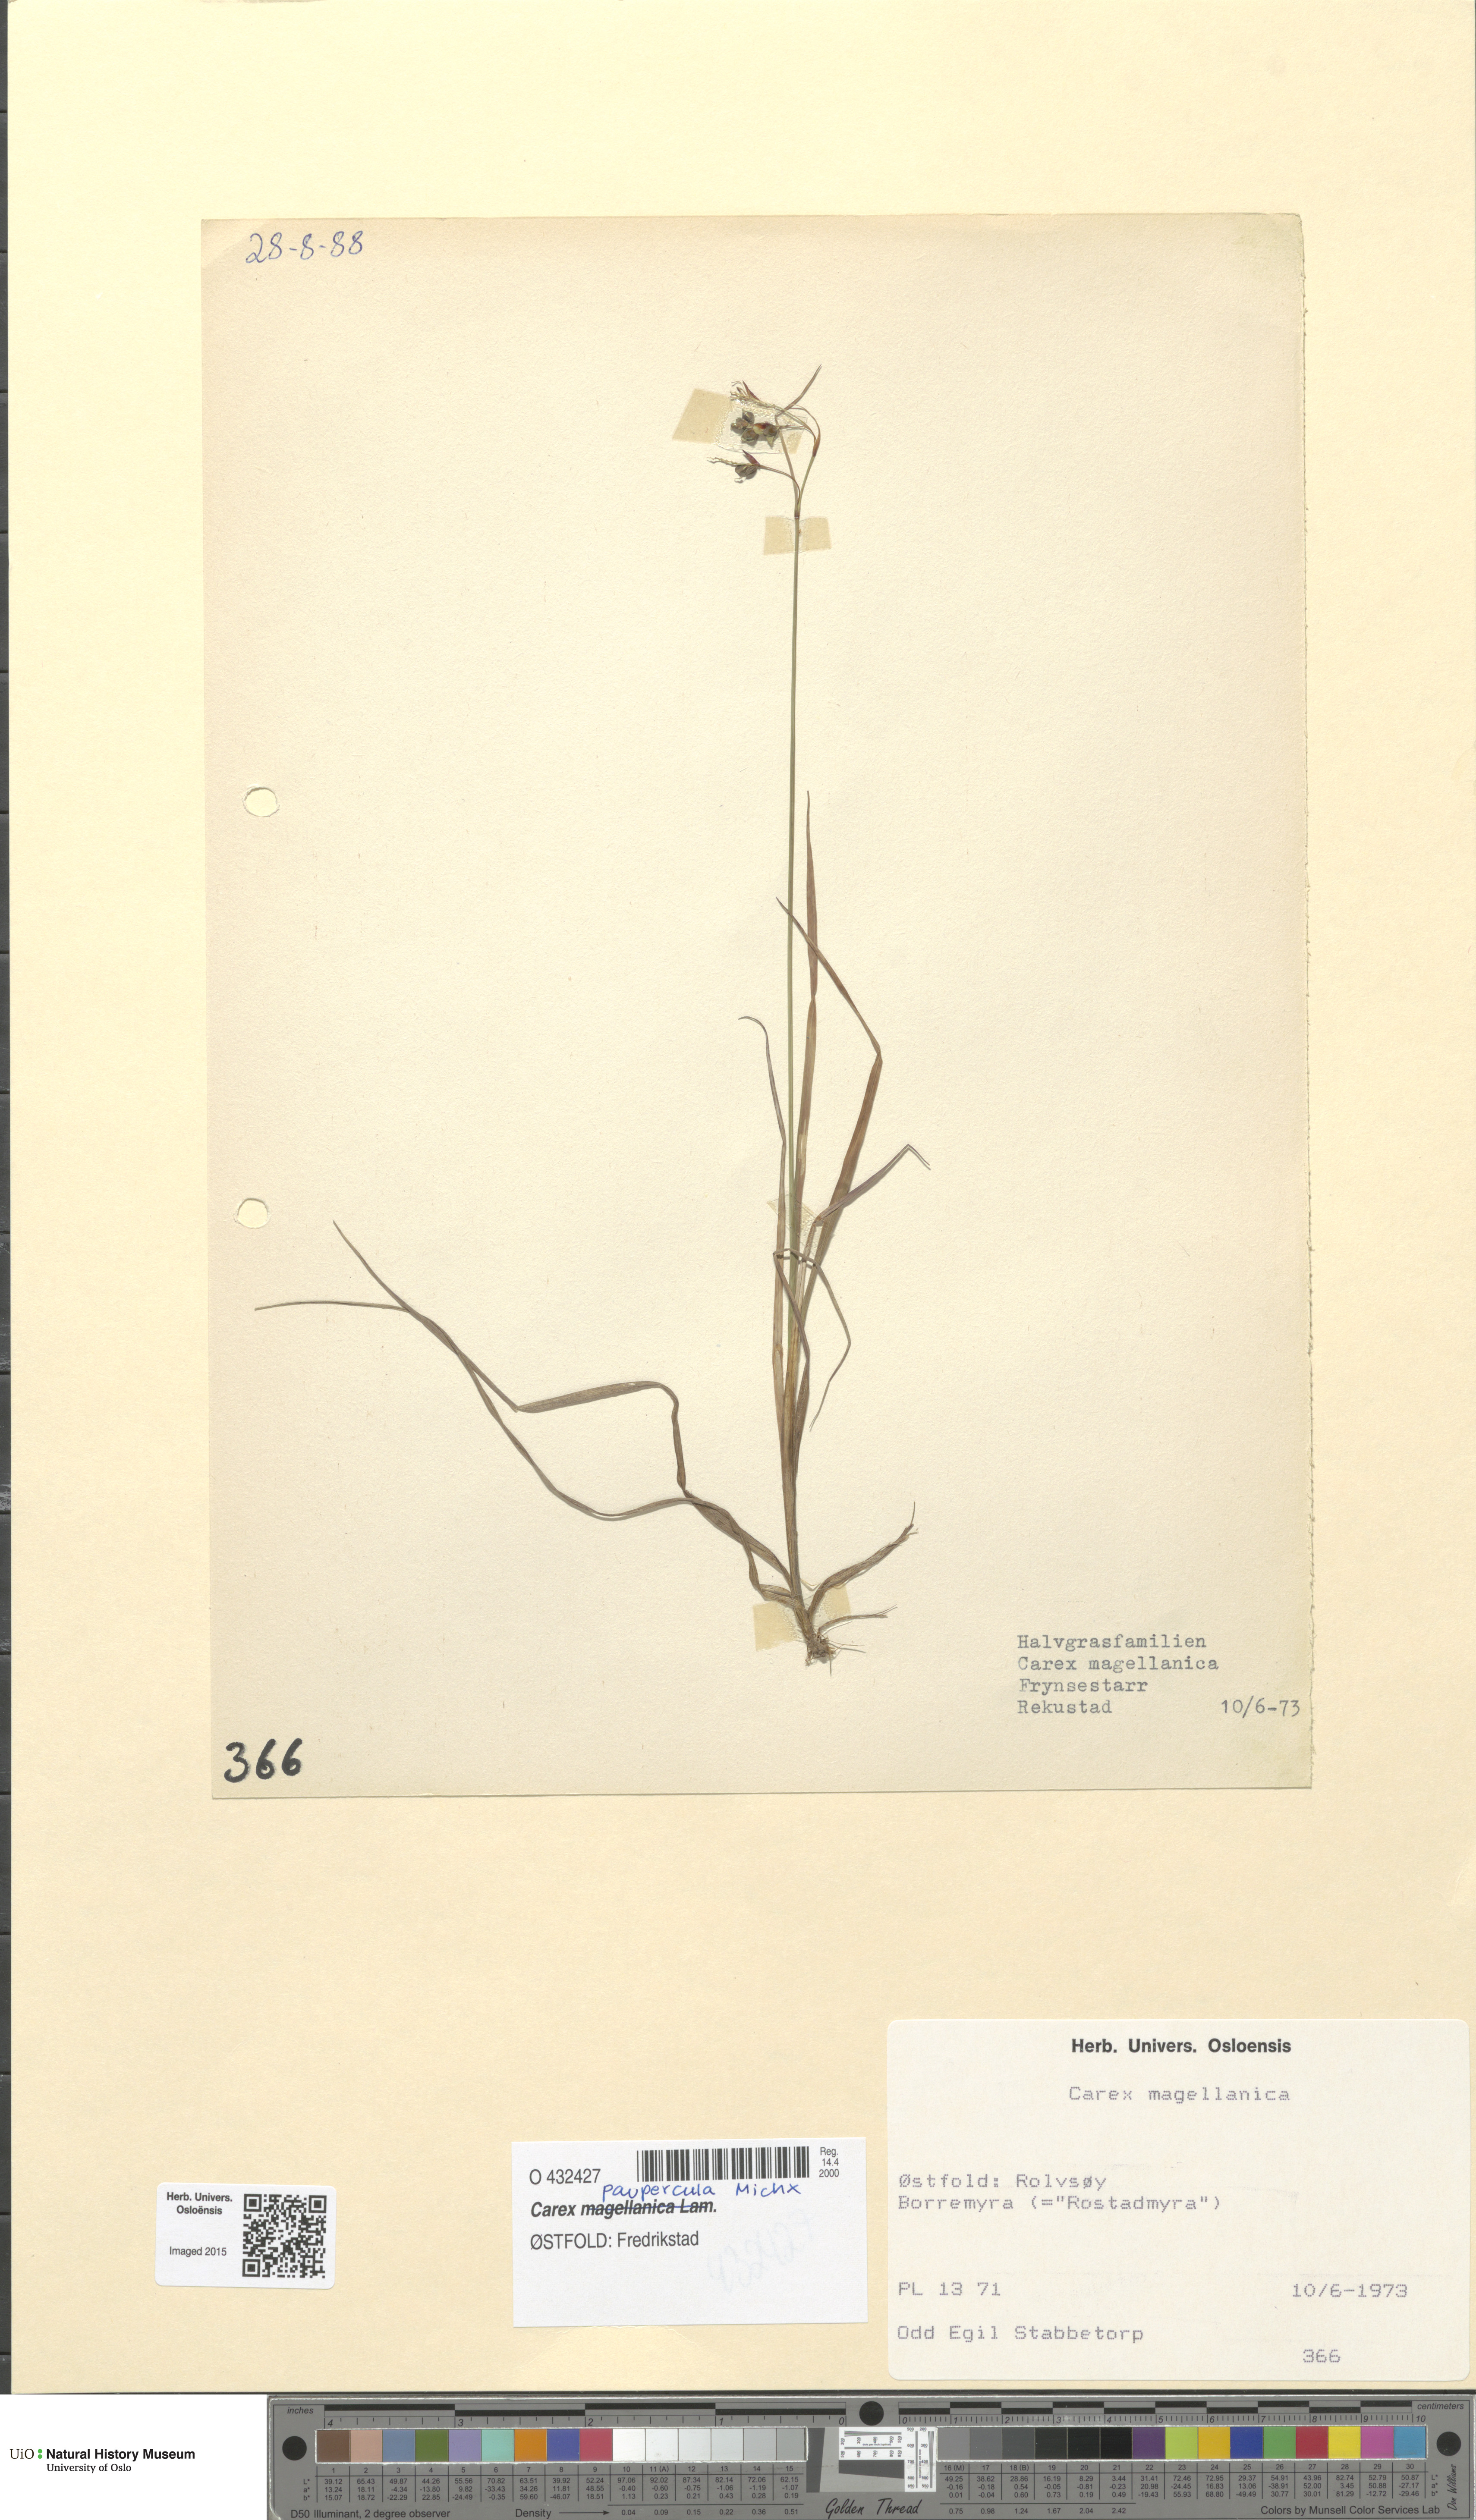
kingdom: Plantae
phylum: Tracheophyta
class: Liliopsida
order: Poales
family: Cyperaceae
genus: Carex
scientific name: Carex magellanica
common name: Bog sedge
